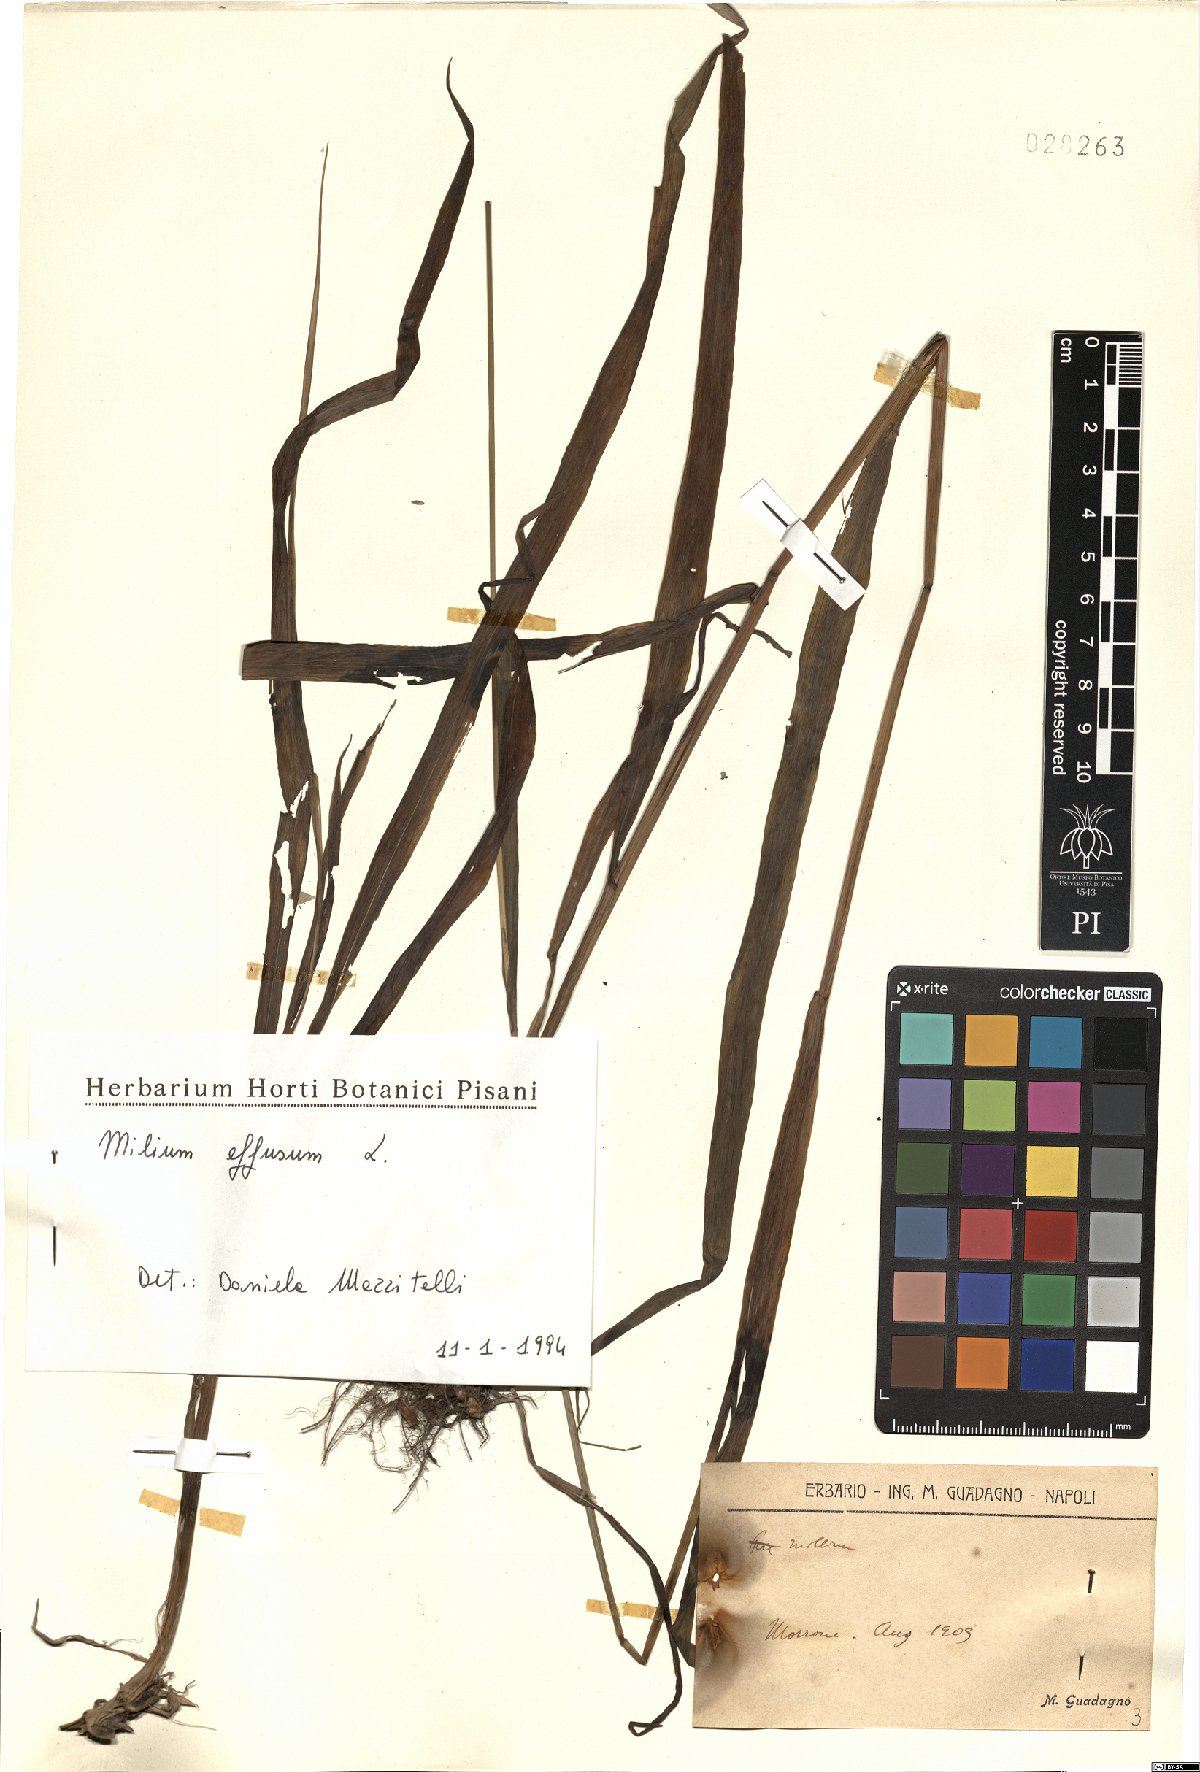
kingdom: Plantae
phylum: Tracheophyta
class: Liliopsida
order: Poales
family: Poaceae
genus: Milium
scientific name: Milium effusum
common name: Wood millet
